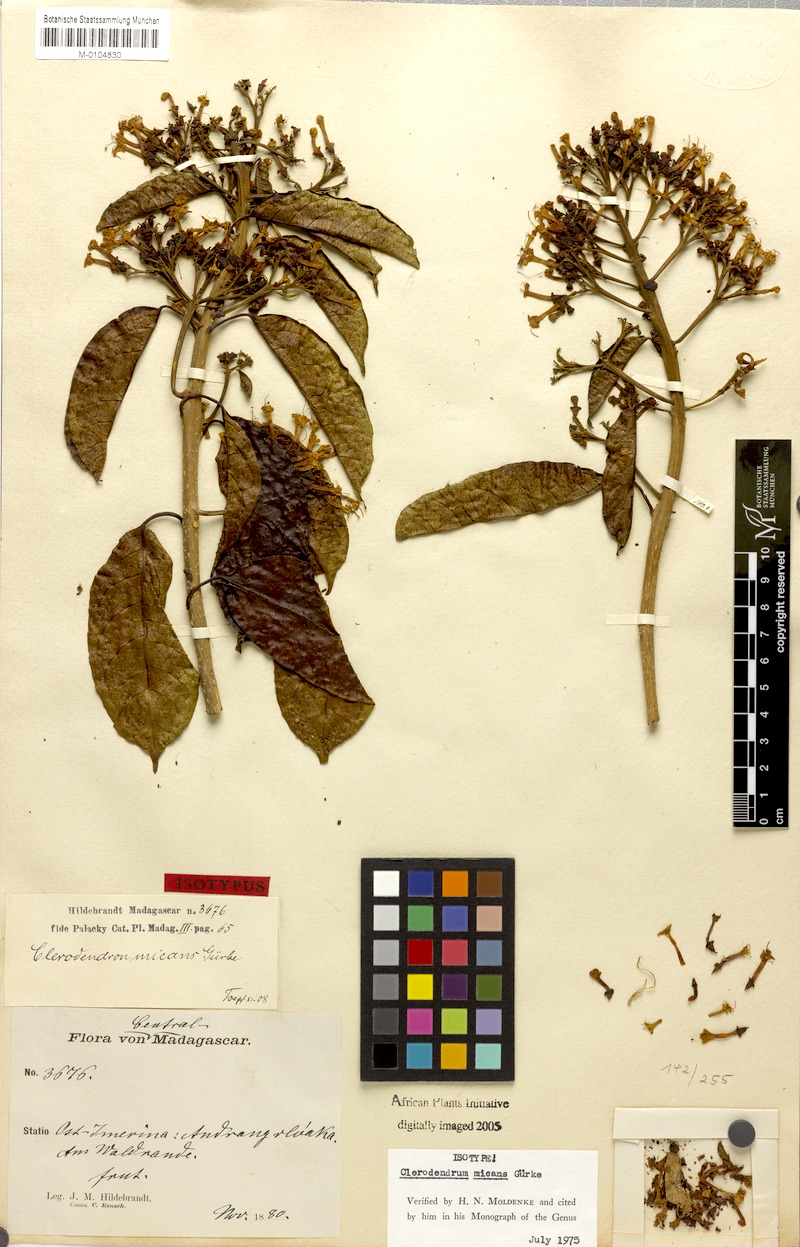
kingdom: Plantae
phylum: Tracheophyta
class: Magnoliopsida
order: Lamiales
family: Lamiaceae
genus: Clerodendrum
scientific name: Clerodendrum micans
